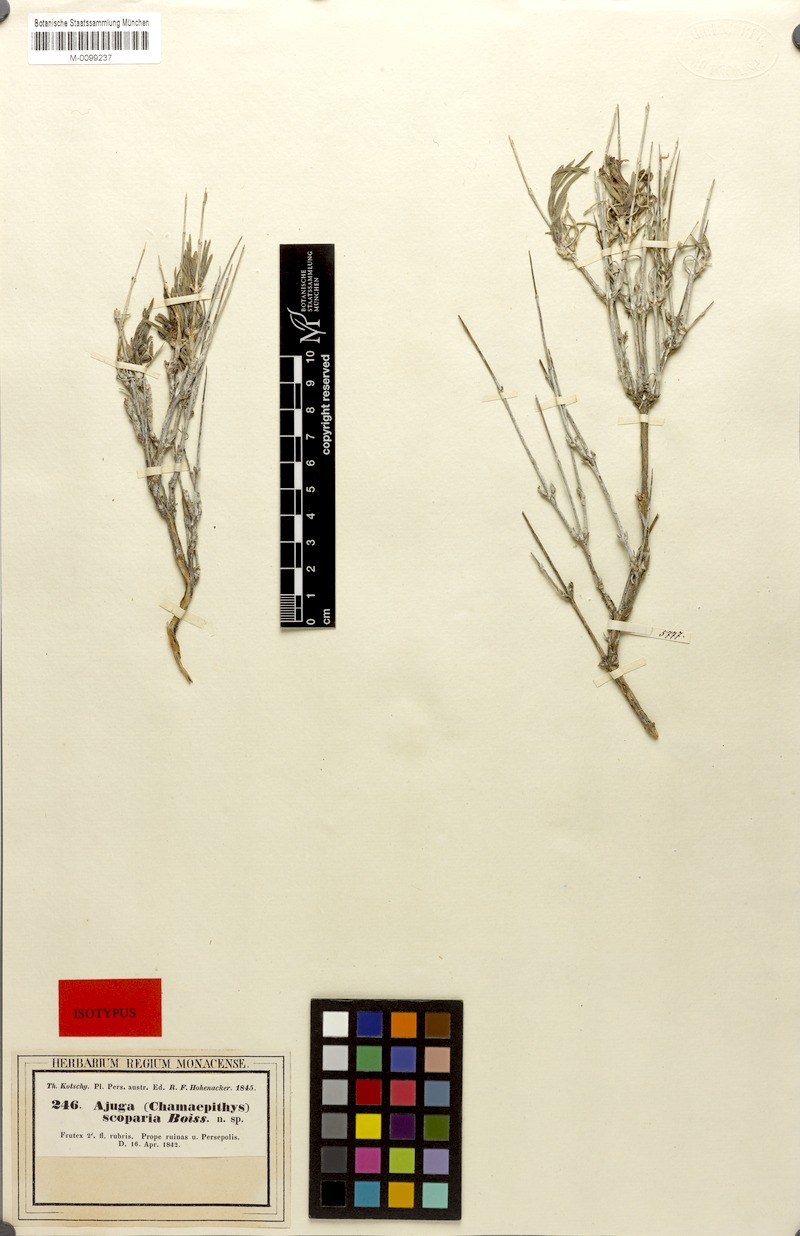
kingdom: Plantae
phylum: Tracheophyta
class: Magnoliopsida
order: Lamiales
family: Lamiaceae
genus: Ajuga
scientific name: Ajuga chamaecistus
